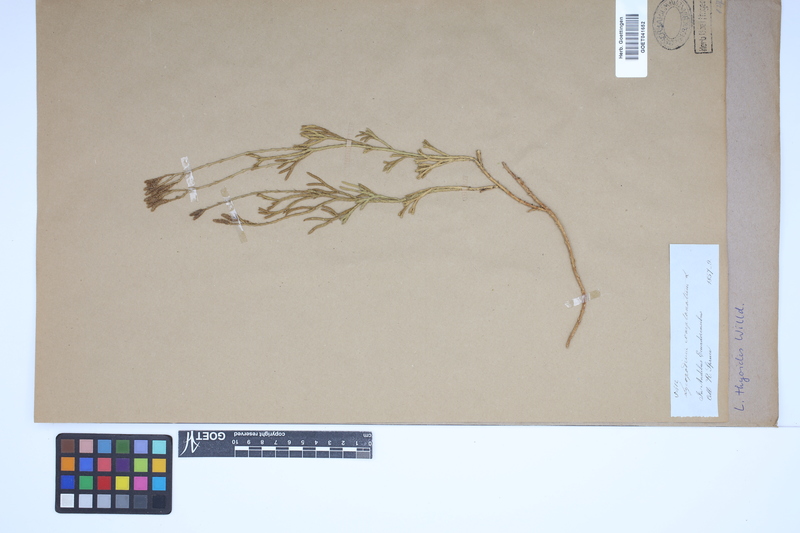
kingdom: Plantae
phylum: Tracheophyta
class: Lycopodiopsida
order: Lycopodiales
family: Lycopodiaceae
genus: Diphasiastrum
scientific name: Diphasiastrum thyoides
